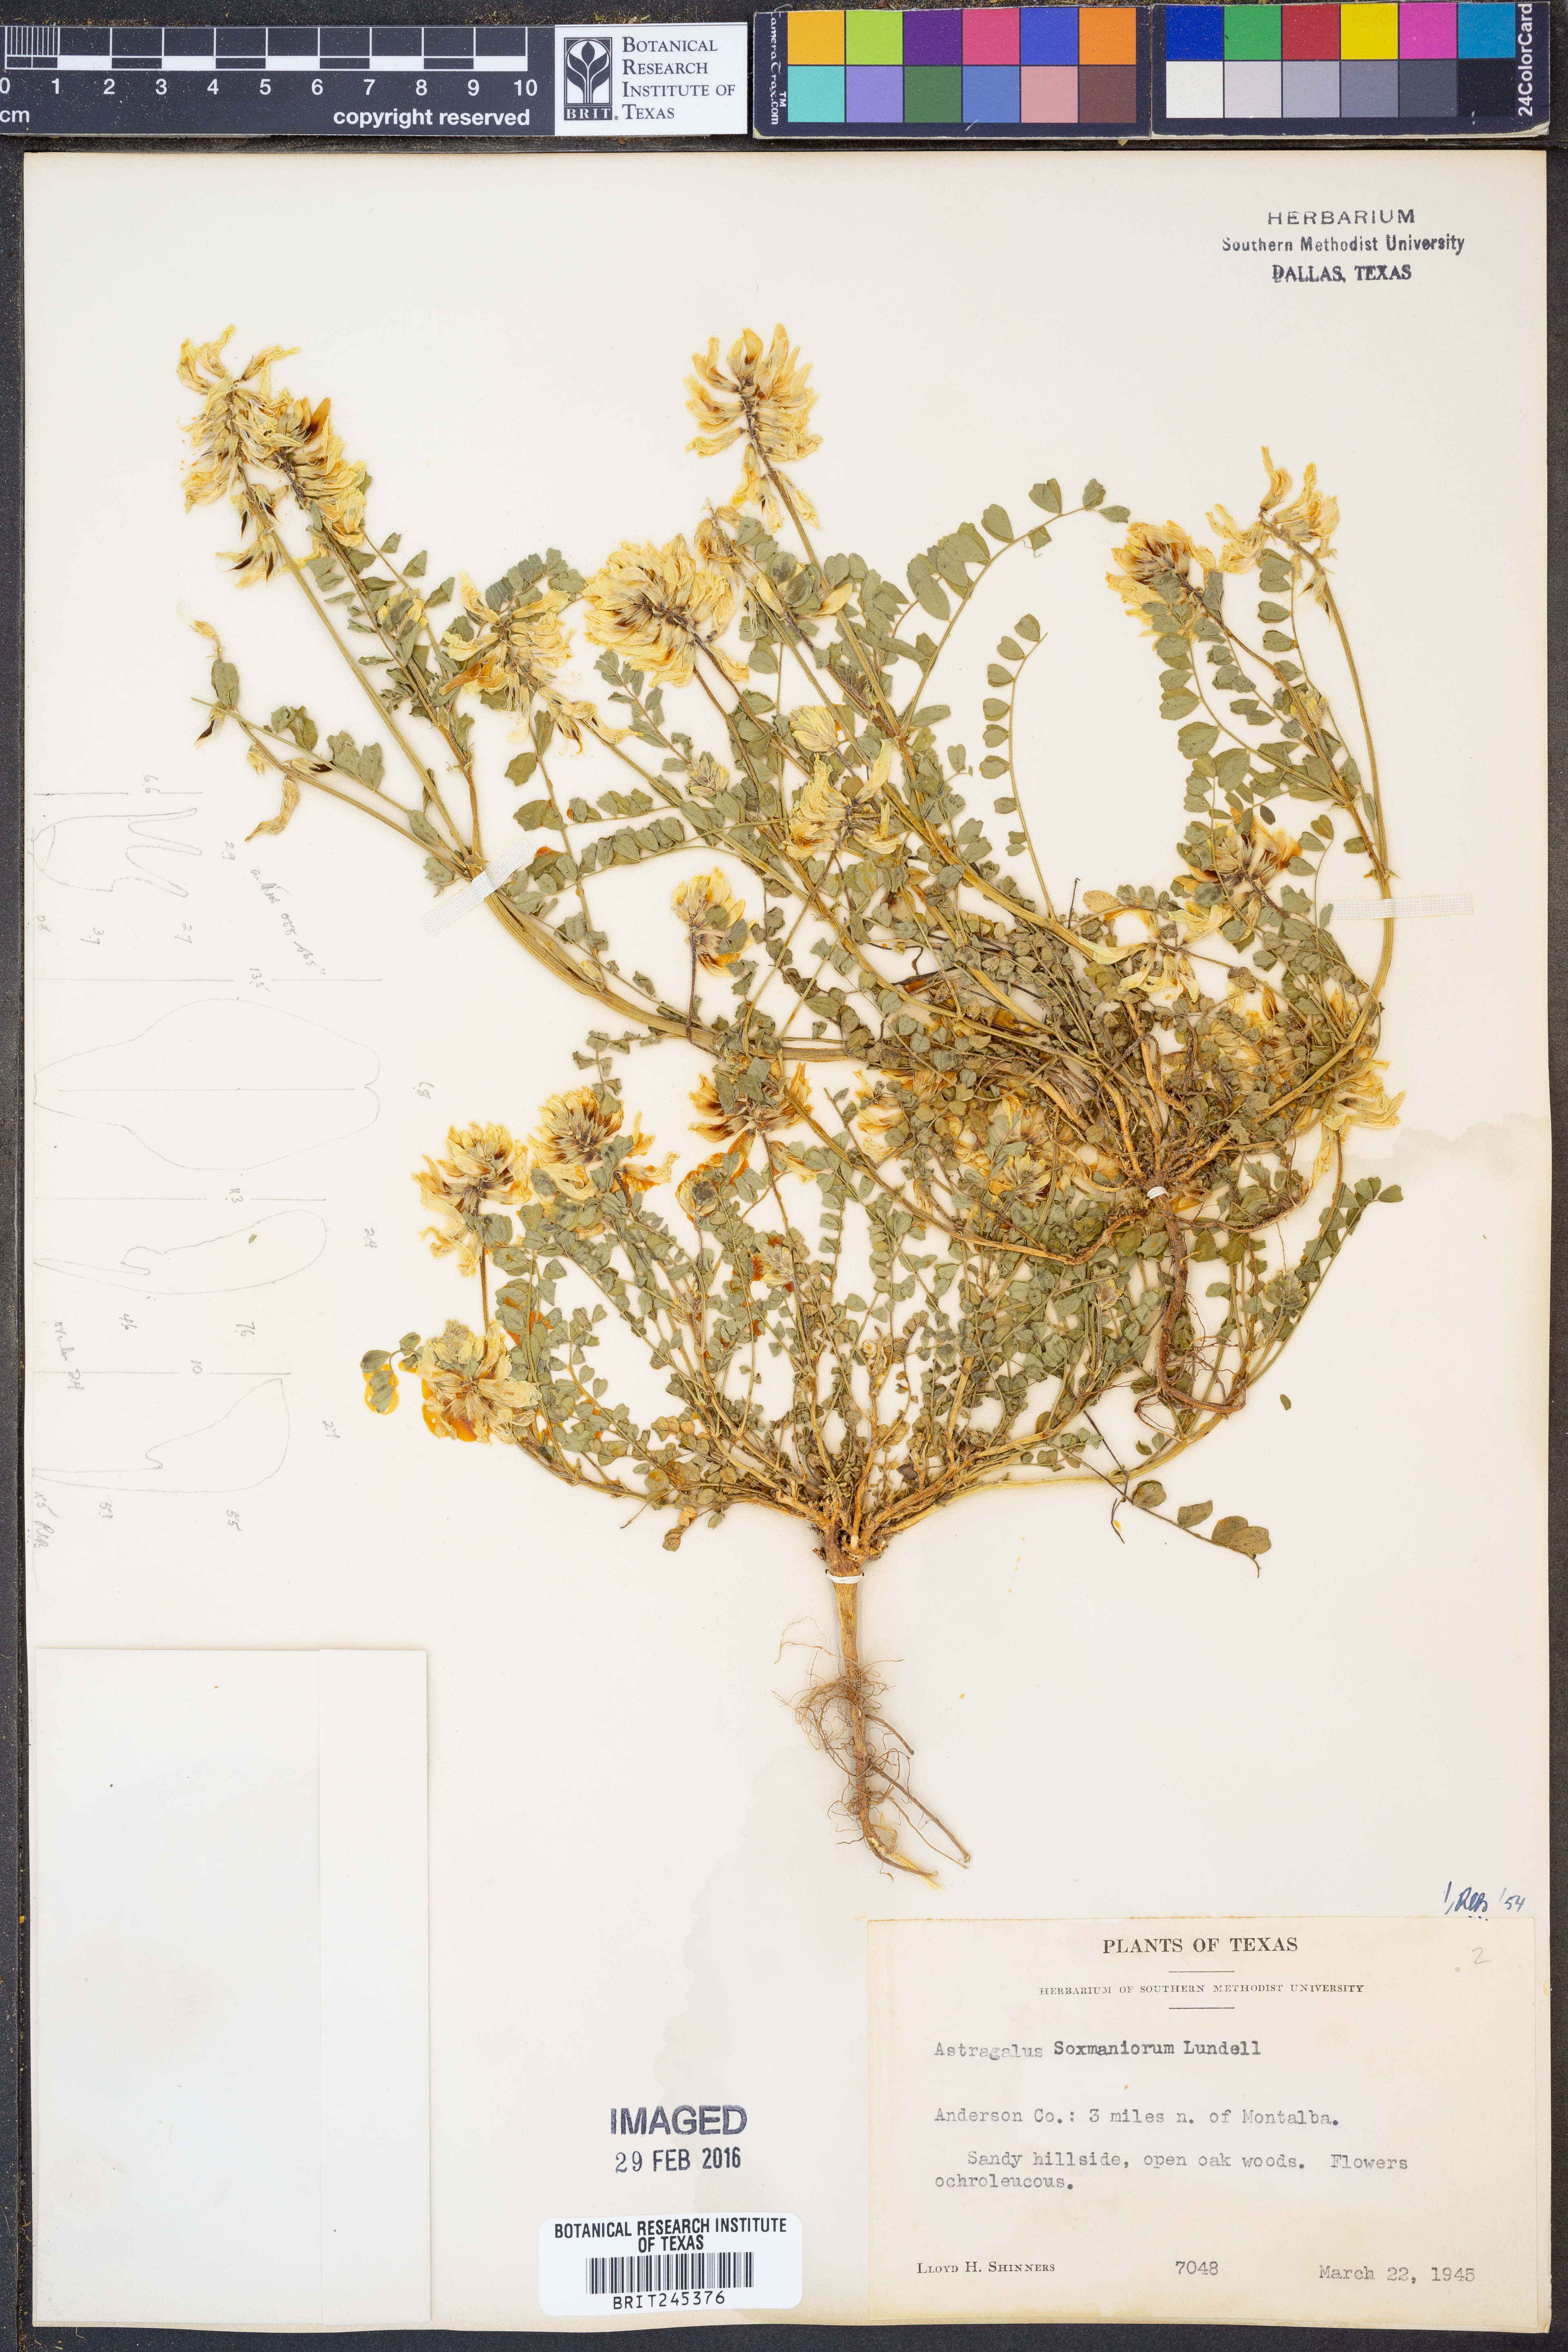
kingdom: Plantae
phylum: Tracheophyta
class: Magnoliopsida
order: Fabales
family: Fabaceae
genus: Astragalus
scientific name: Astragalus soxmaniorum
